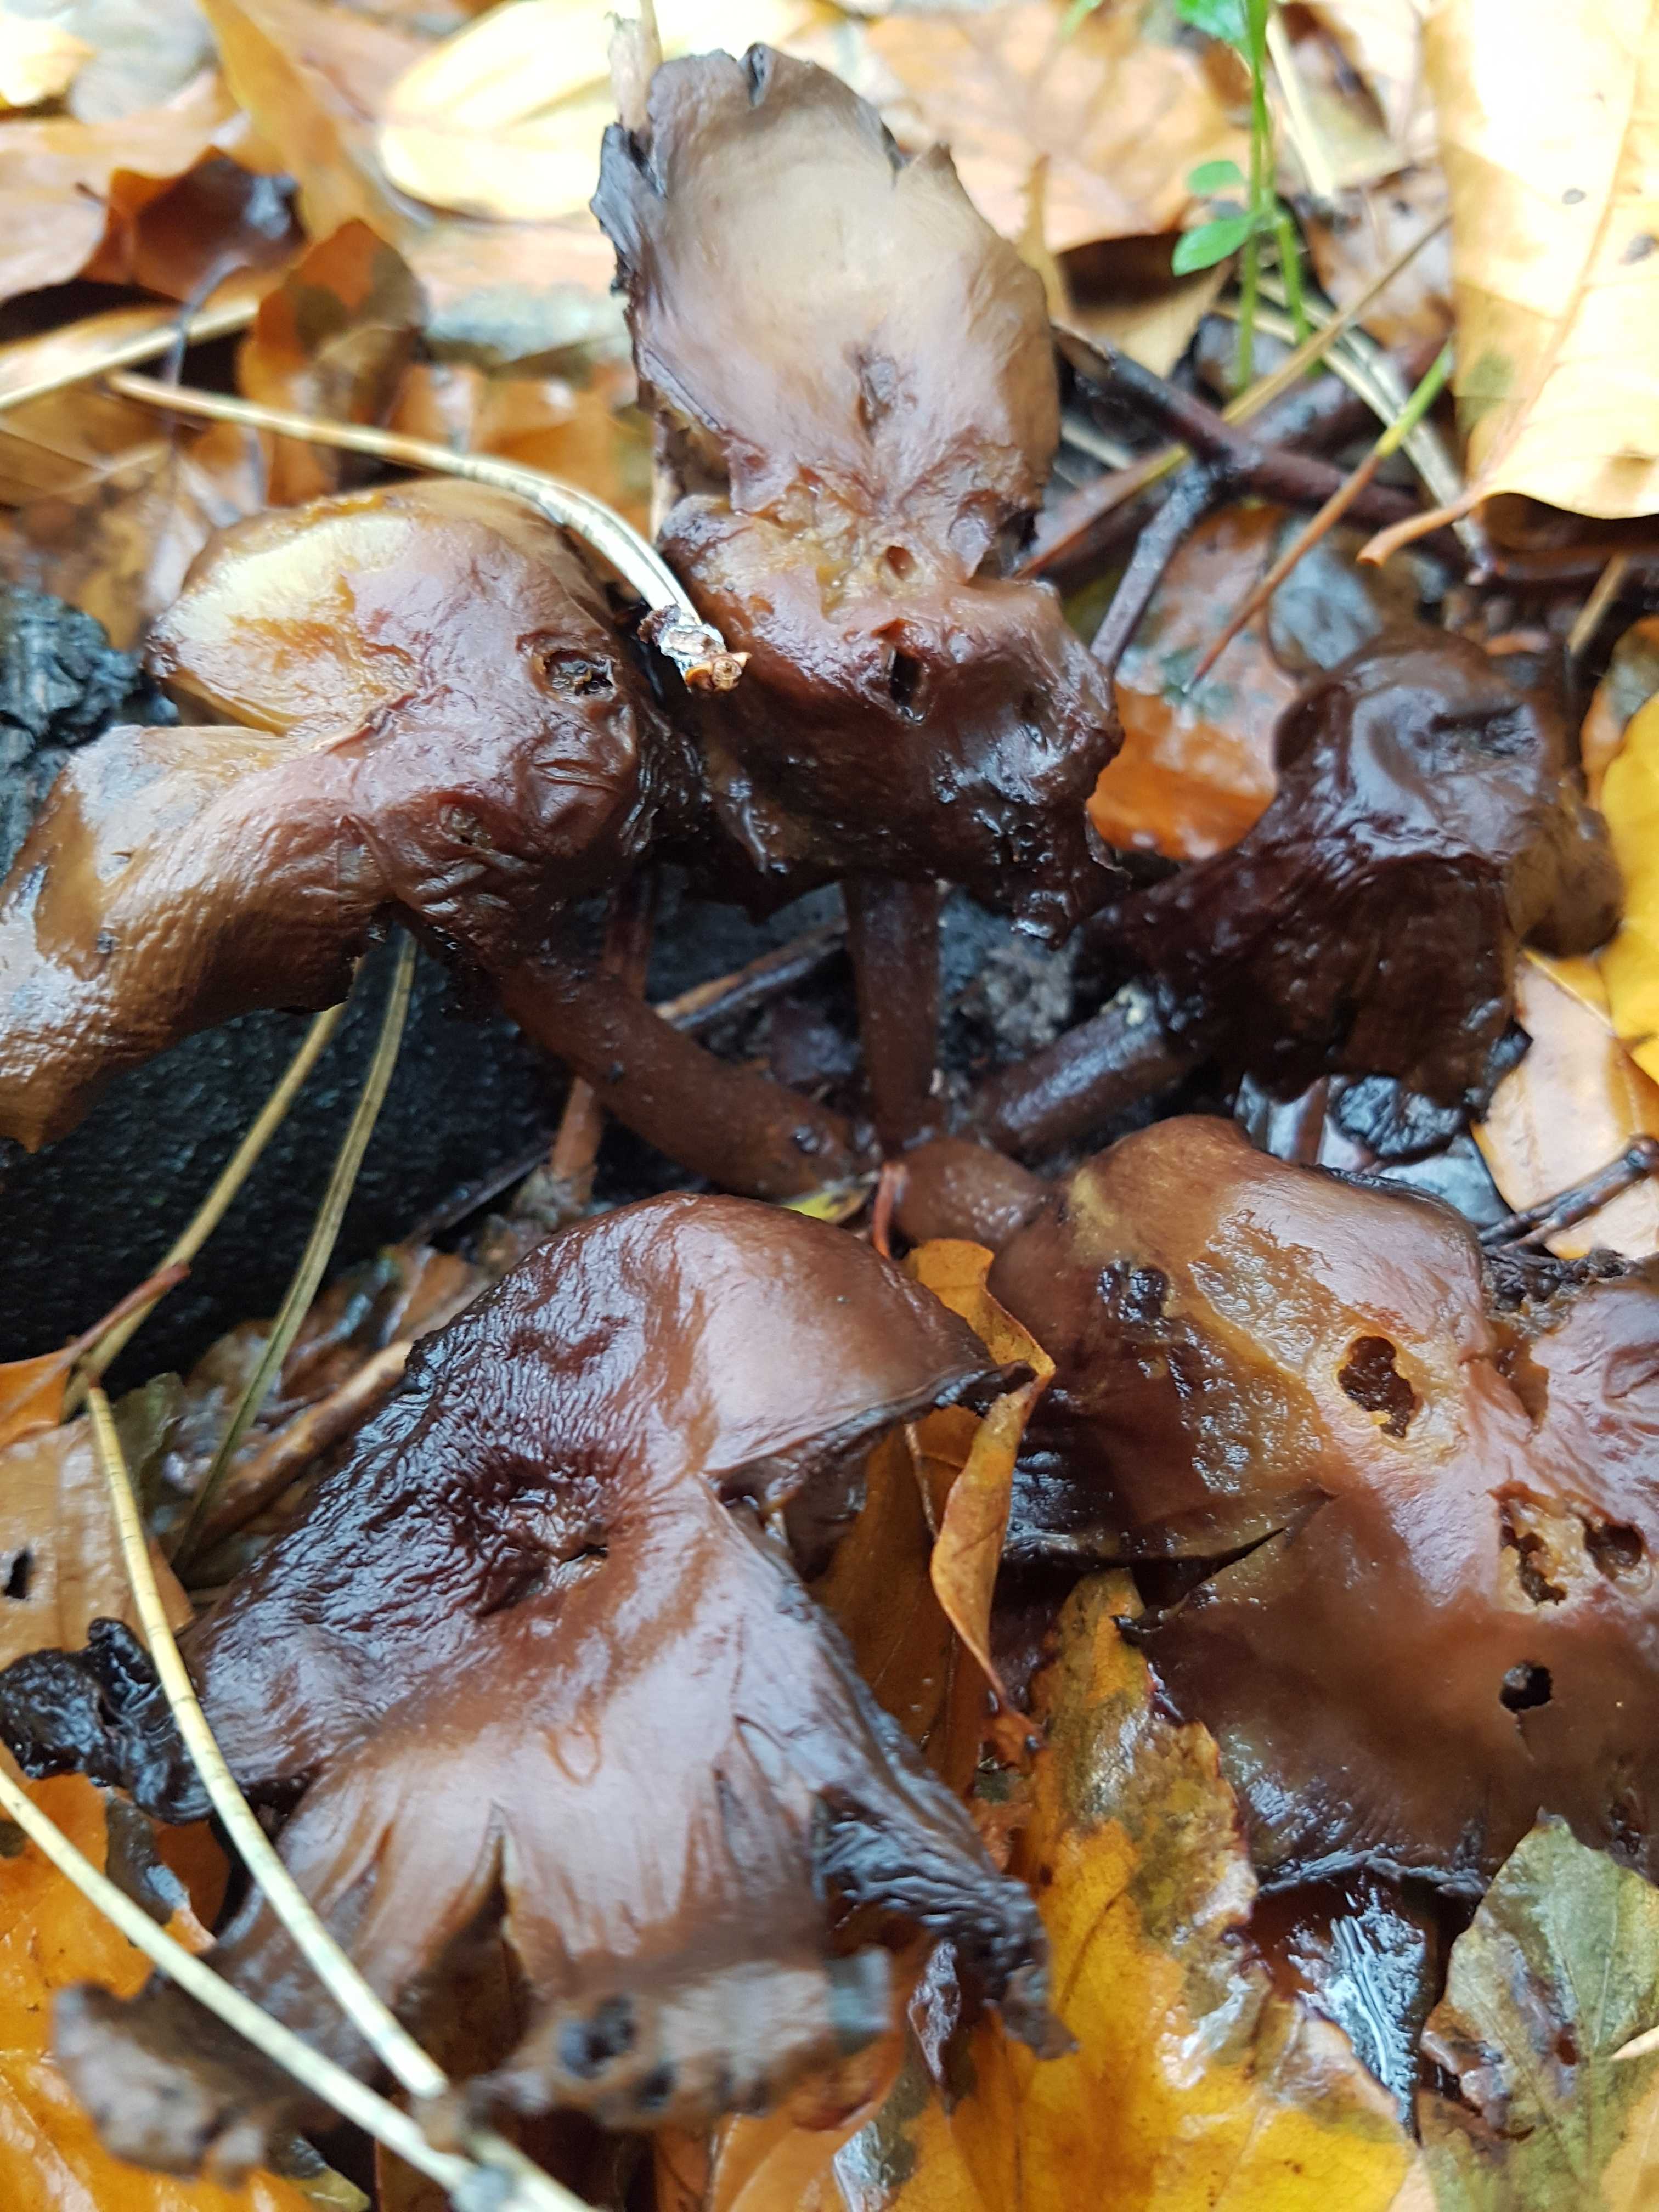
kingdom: Fungi
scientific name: Fungi
